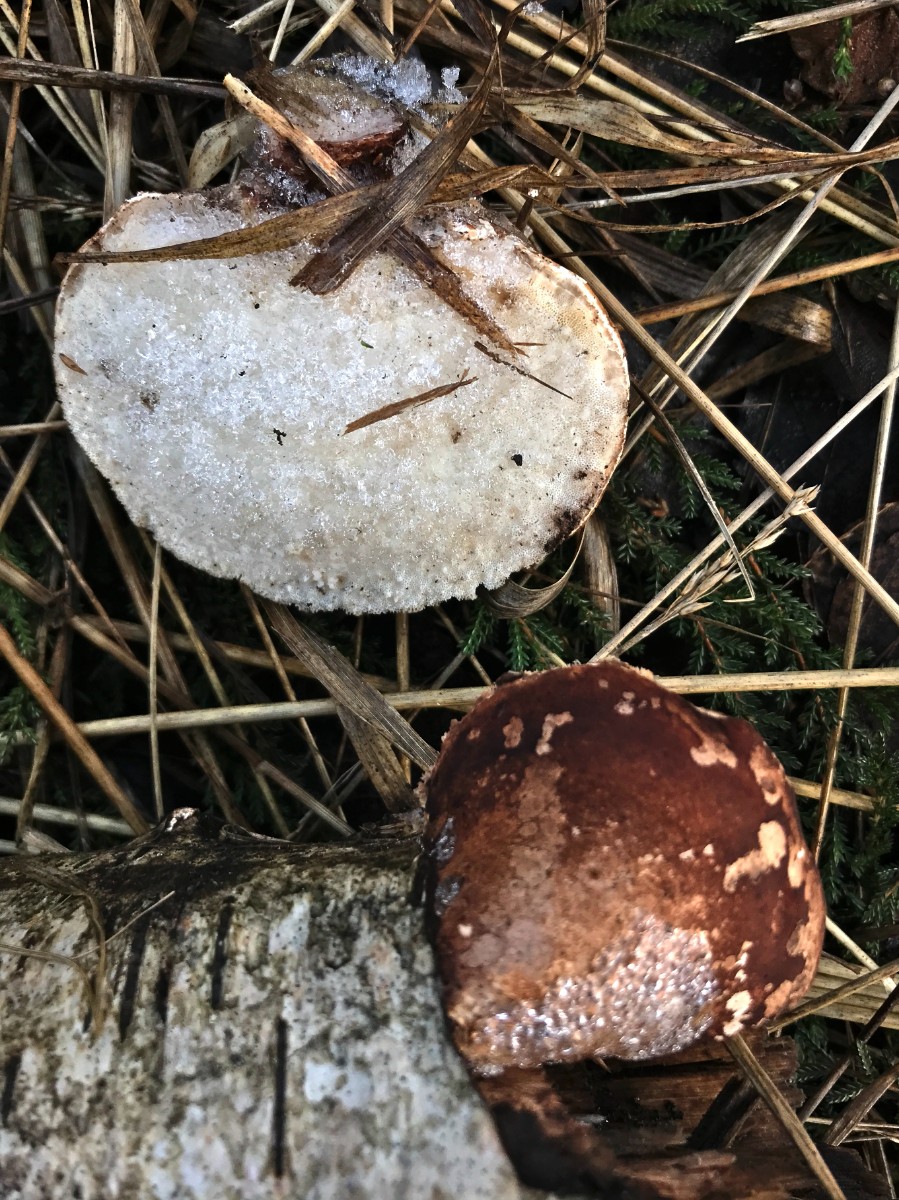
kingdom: Fungi
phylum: Basidiomycota
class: Agaricomycetes
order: Polyporales
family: Fomitopsidaceae
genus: Fomitopsis
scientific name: Fomitopsis betulina
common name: birkeporesvamp
